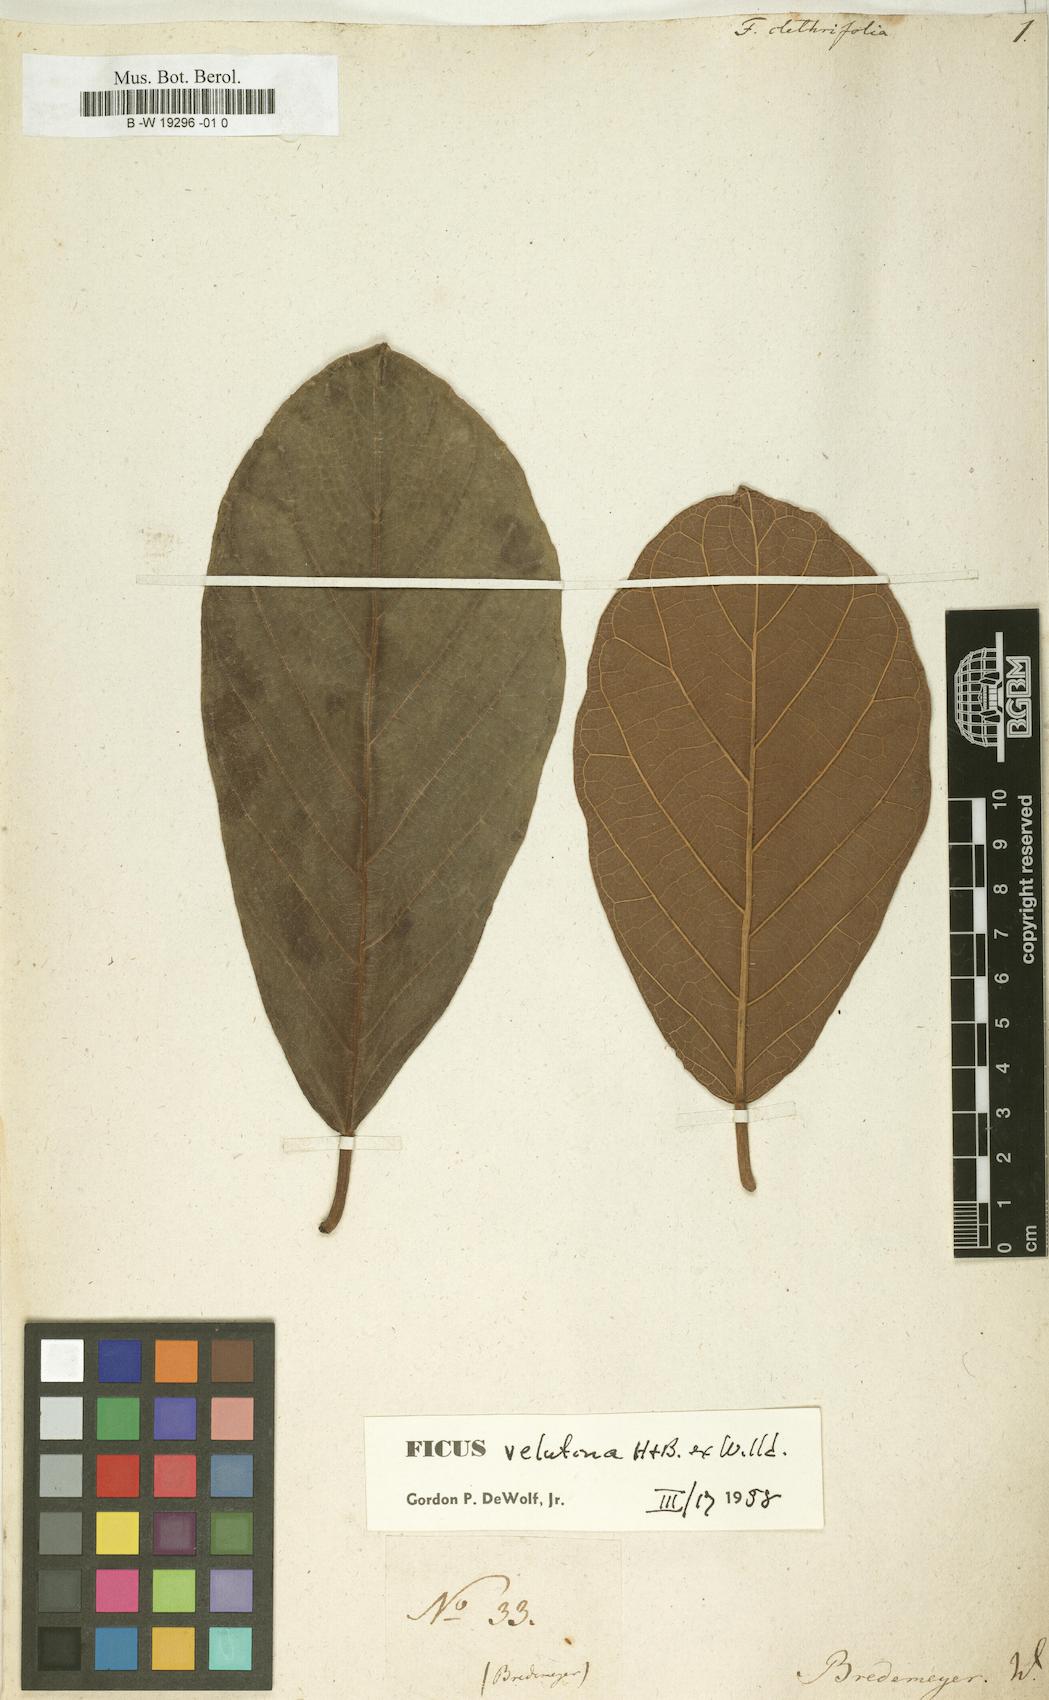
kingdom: Plantae
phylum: Tracheophyta
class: Magnoliopsida
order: Rosales
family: Moraceae
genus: Ficus
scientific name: Ficus velutina
